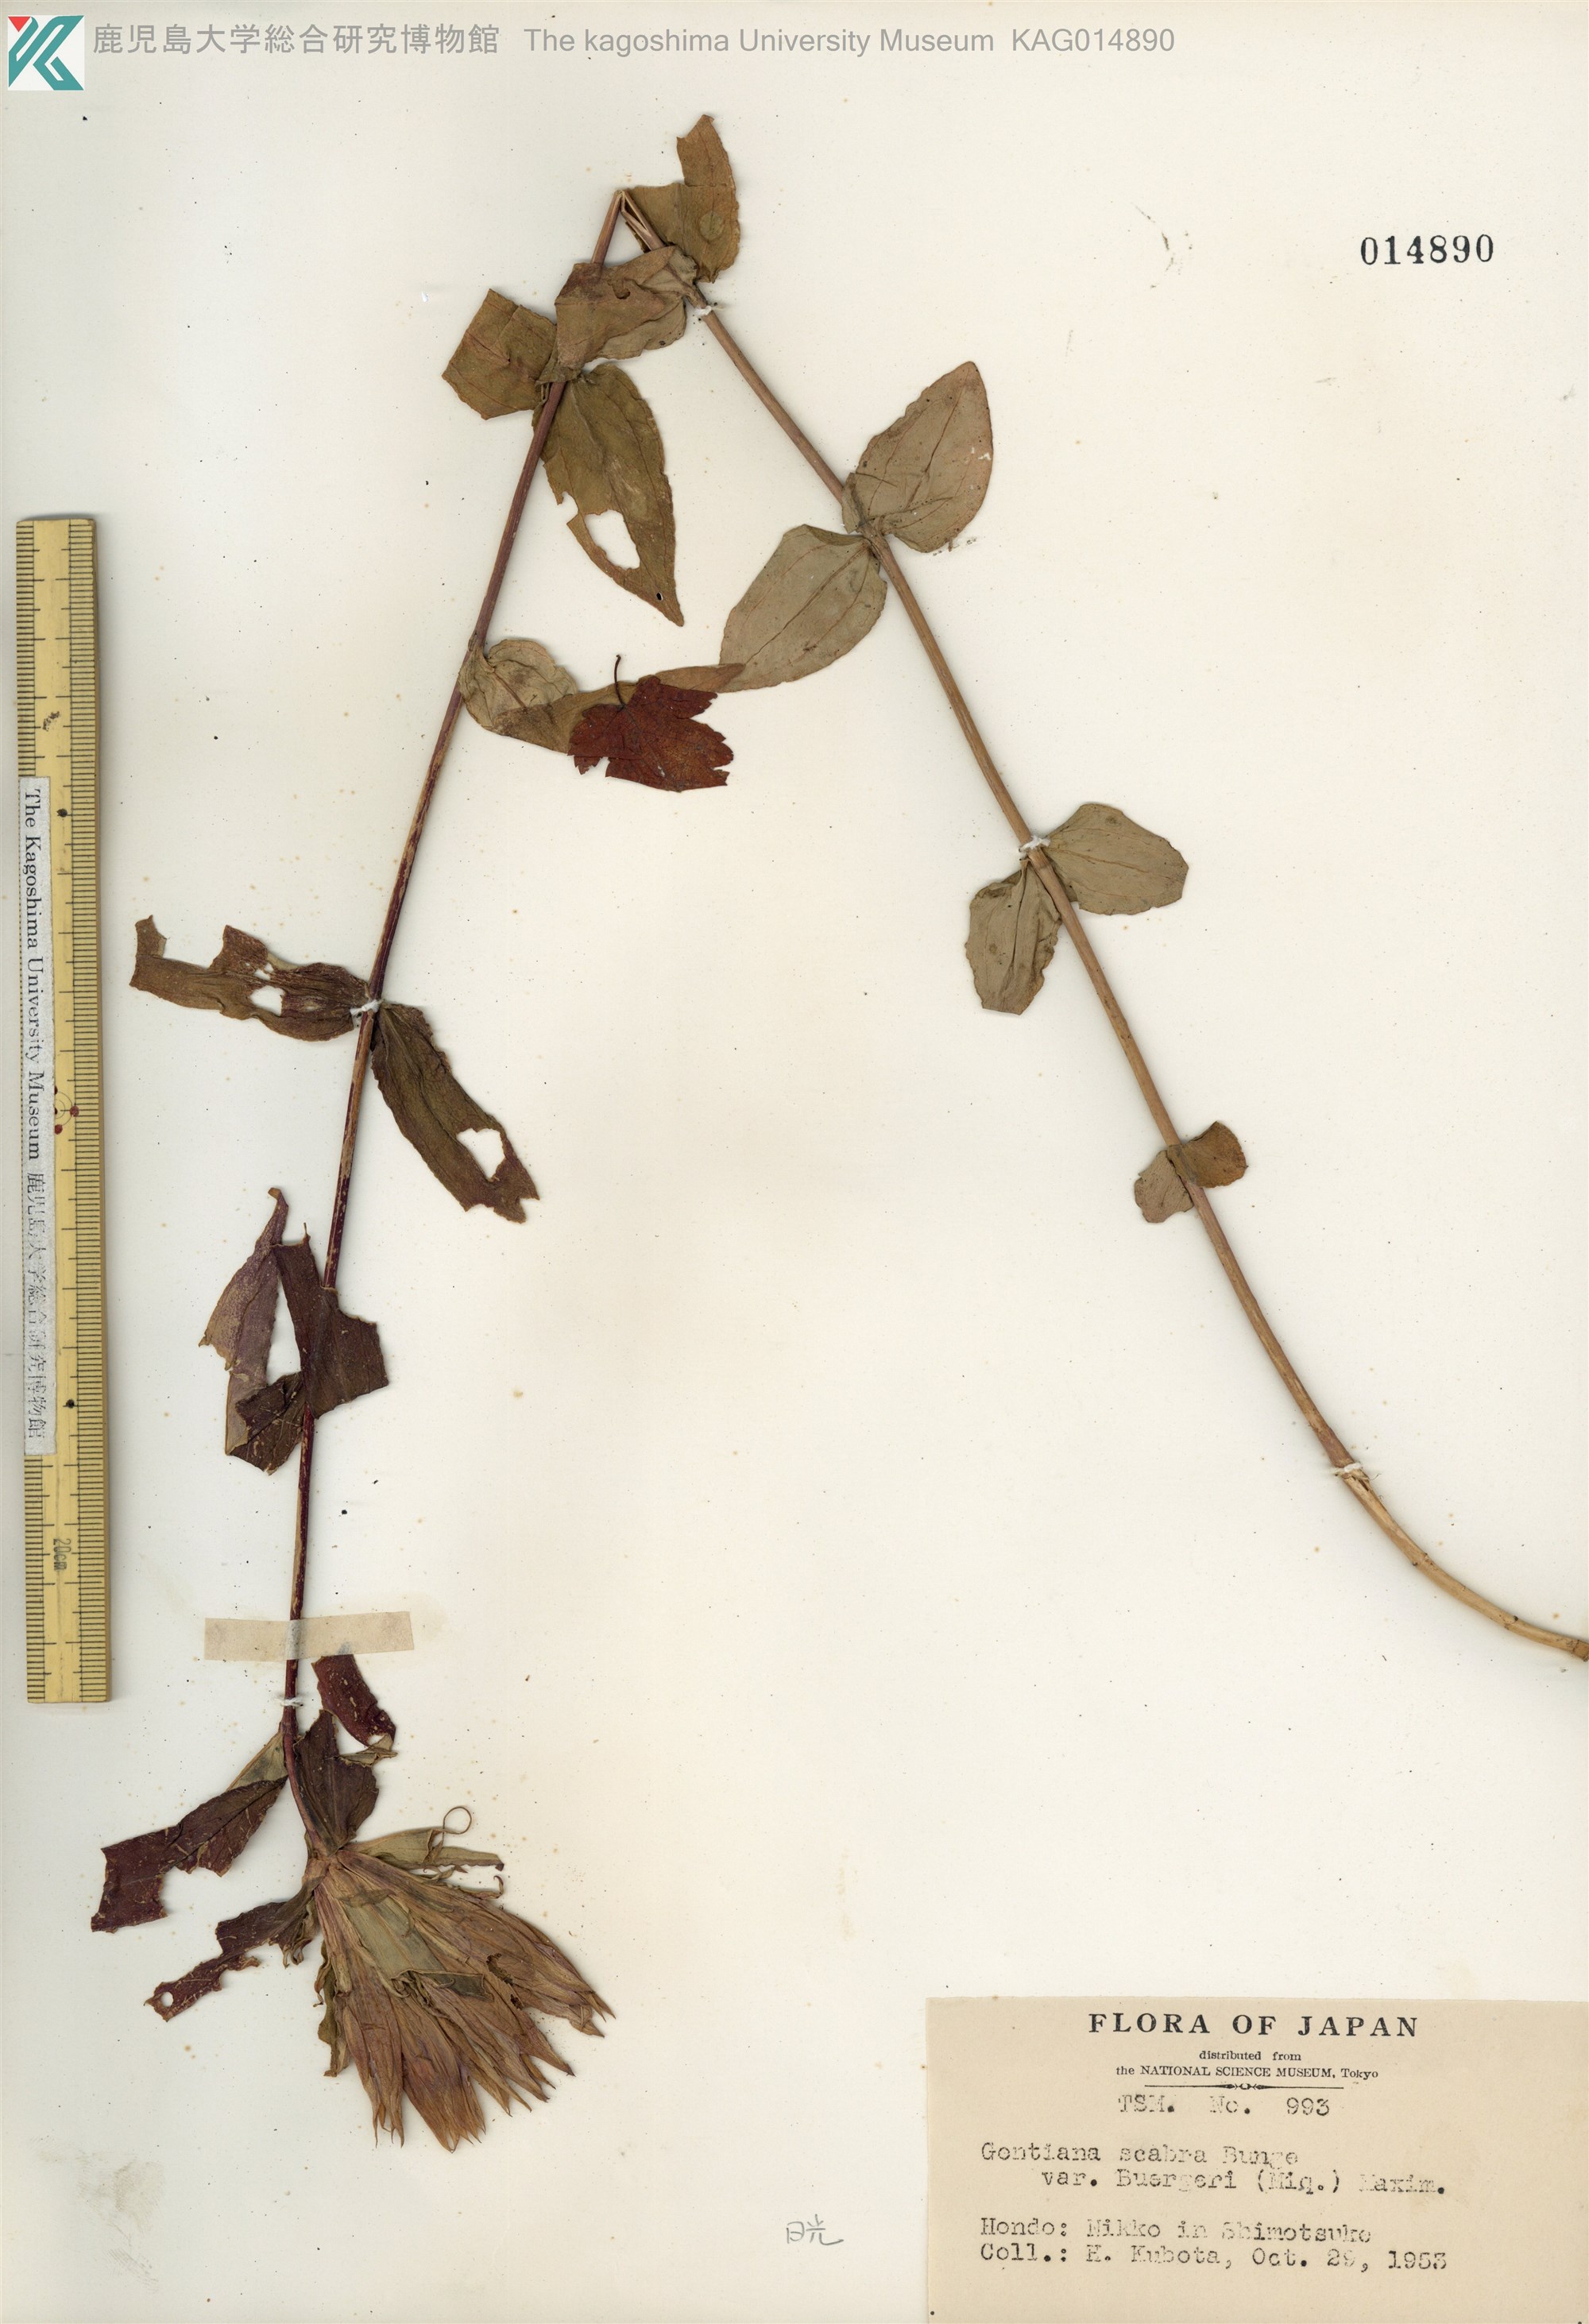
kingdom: Plantae
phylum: Tracheophyta
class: Magnoliopsida
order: Gentianales
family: Gentianaceae
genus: Gentiana
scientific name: Gentiana scabra
